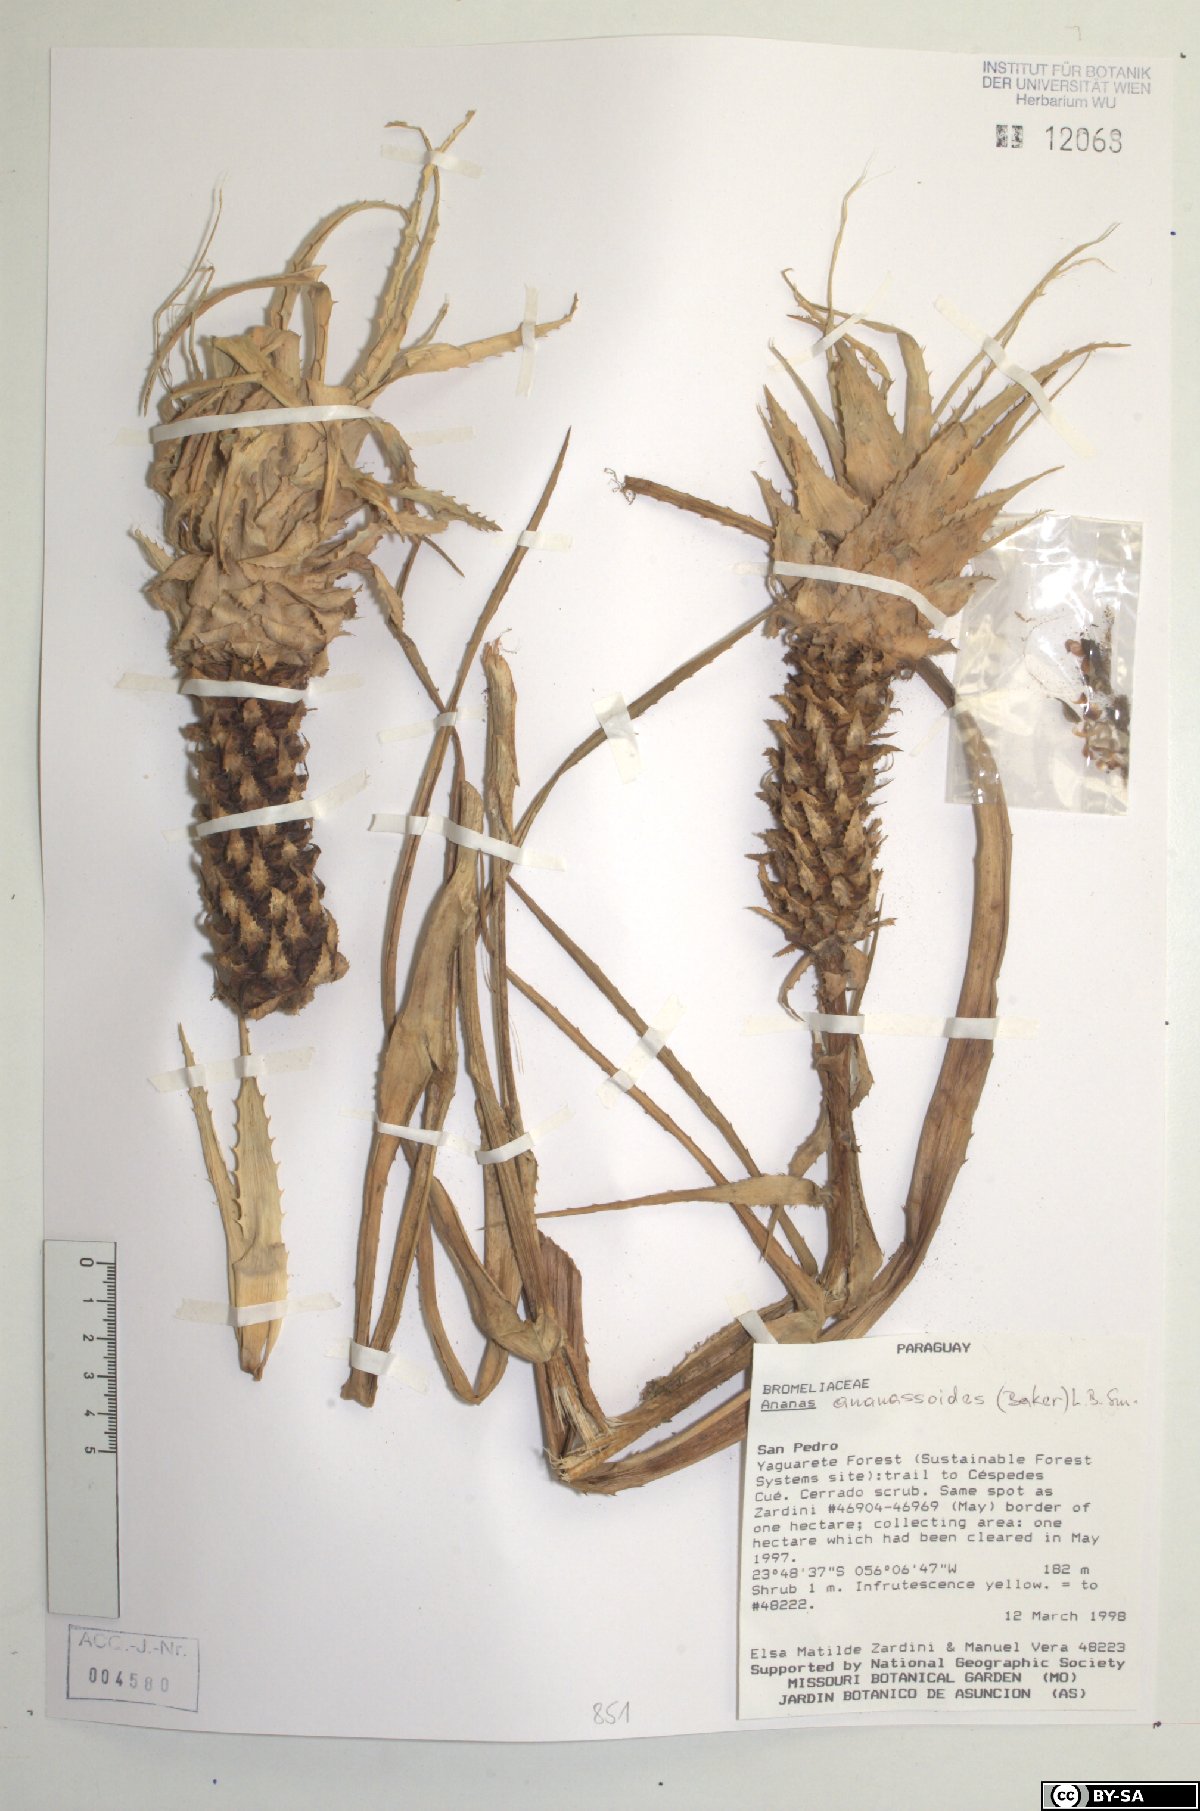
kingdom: Plantae
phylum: Tracheophyta
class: Liliopsida
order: Poales
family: Bromeliaceae
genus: Ananas
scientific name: Ananas comosus
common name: Pineapple
